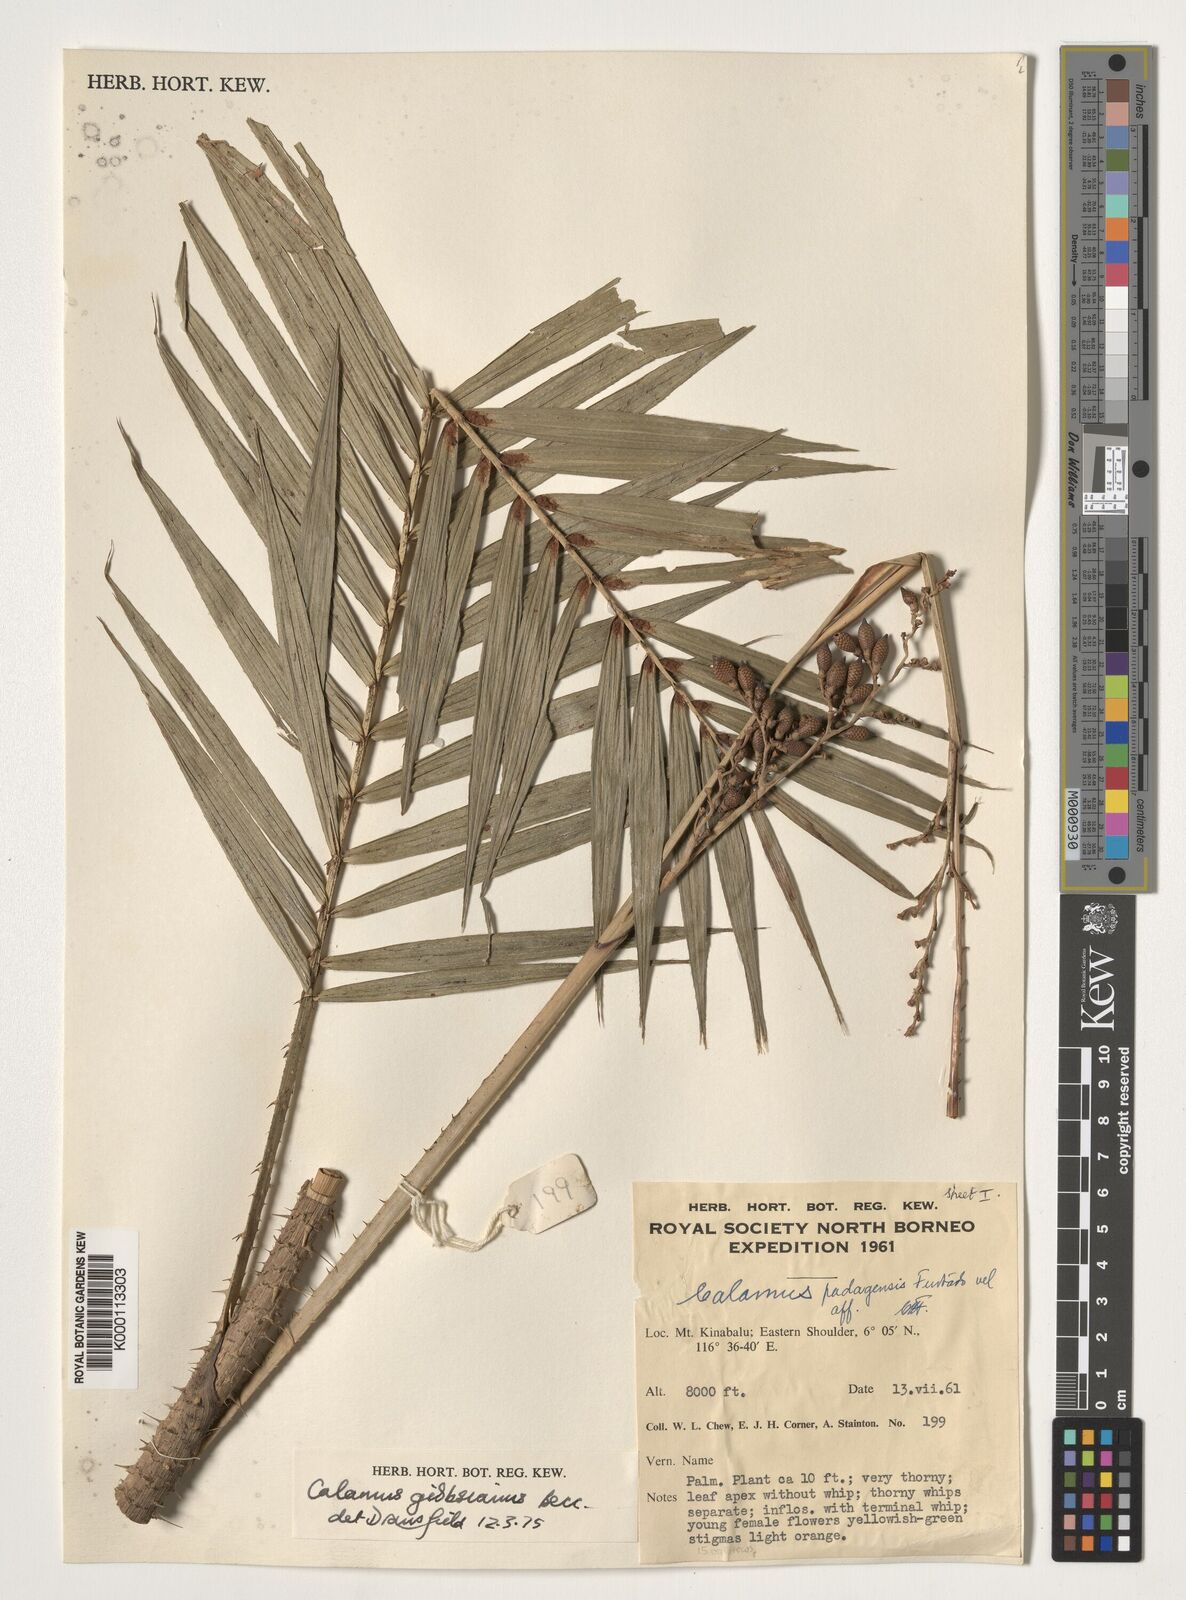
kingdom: Plantae
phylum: Tracheophyta
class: Liliopsida
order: Arecales
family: Arecaceae
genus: Calamus
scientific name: Calamus gibbsianus
